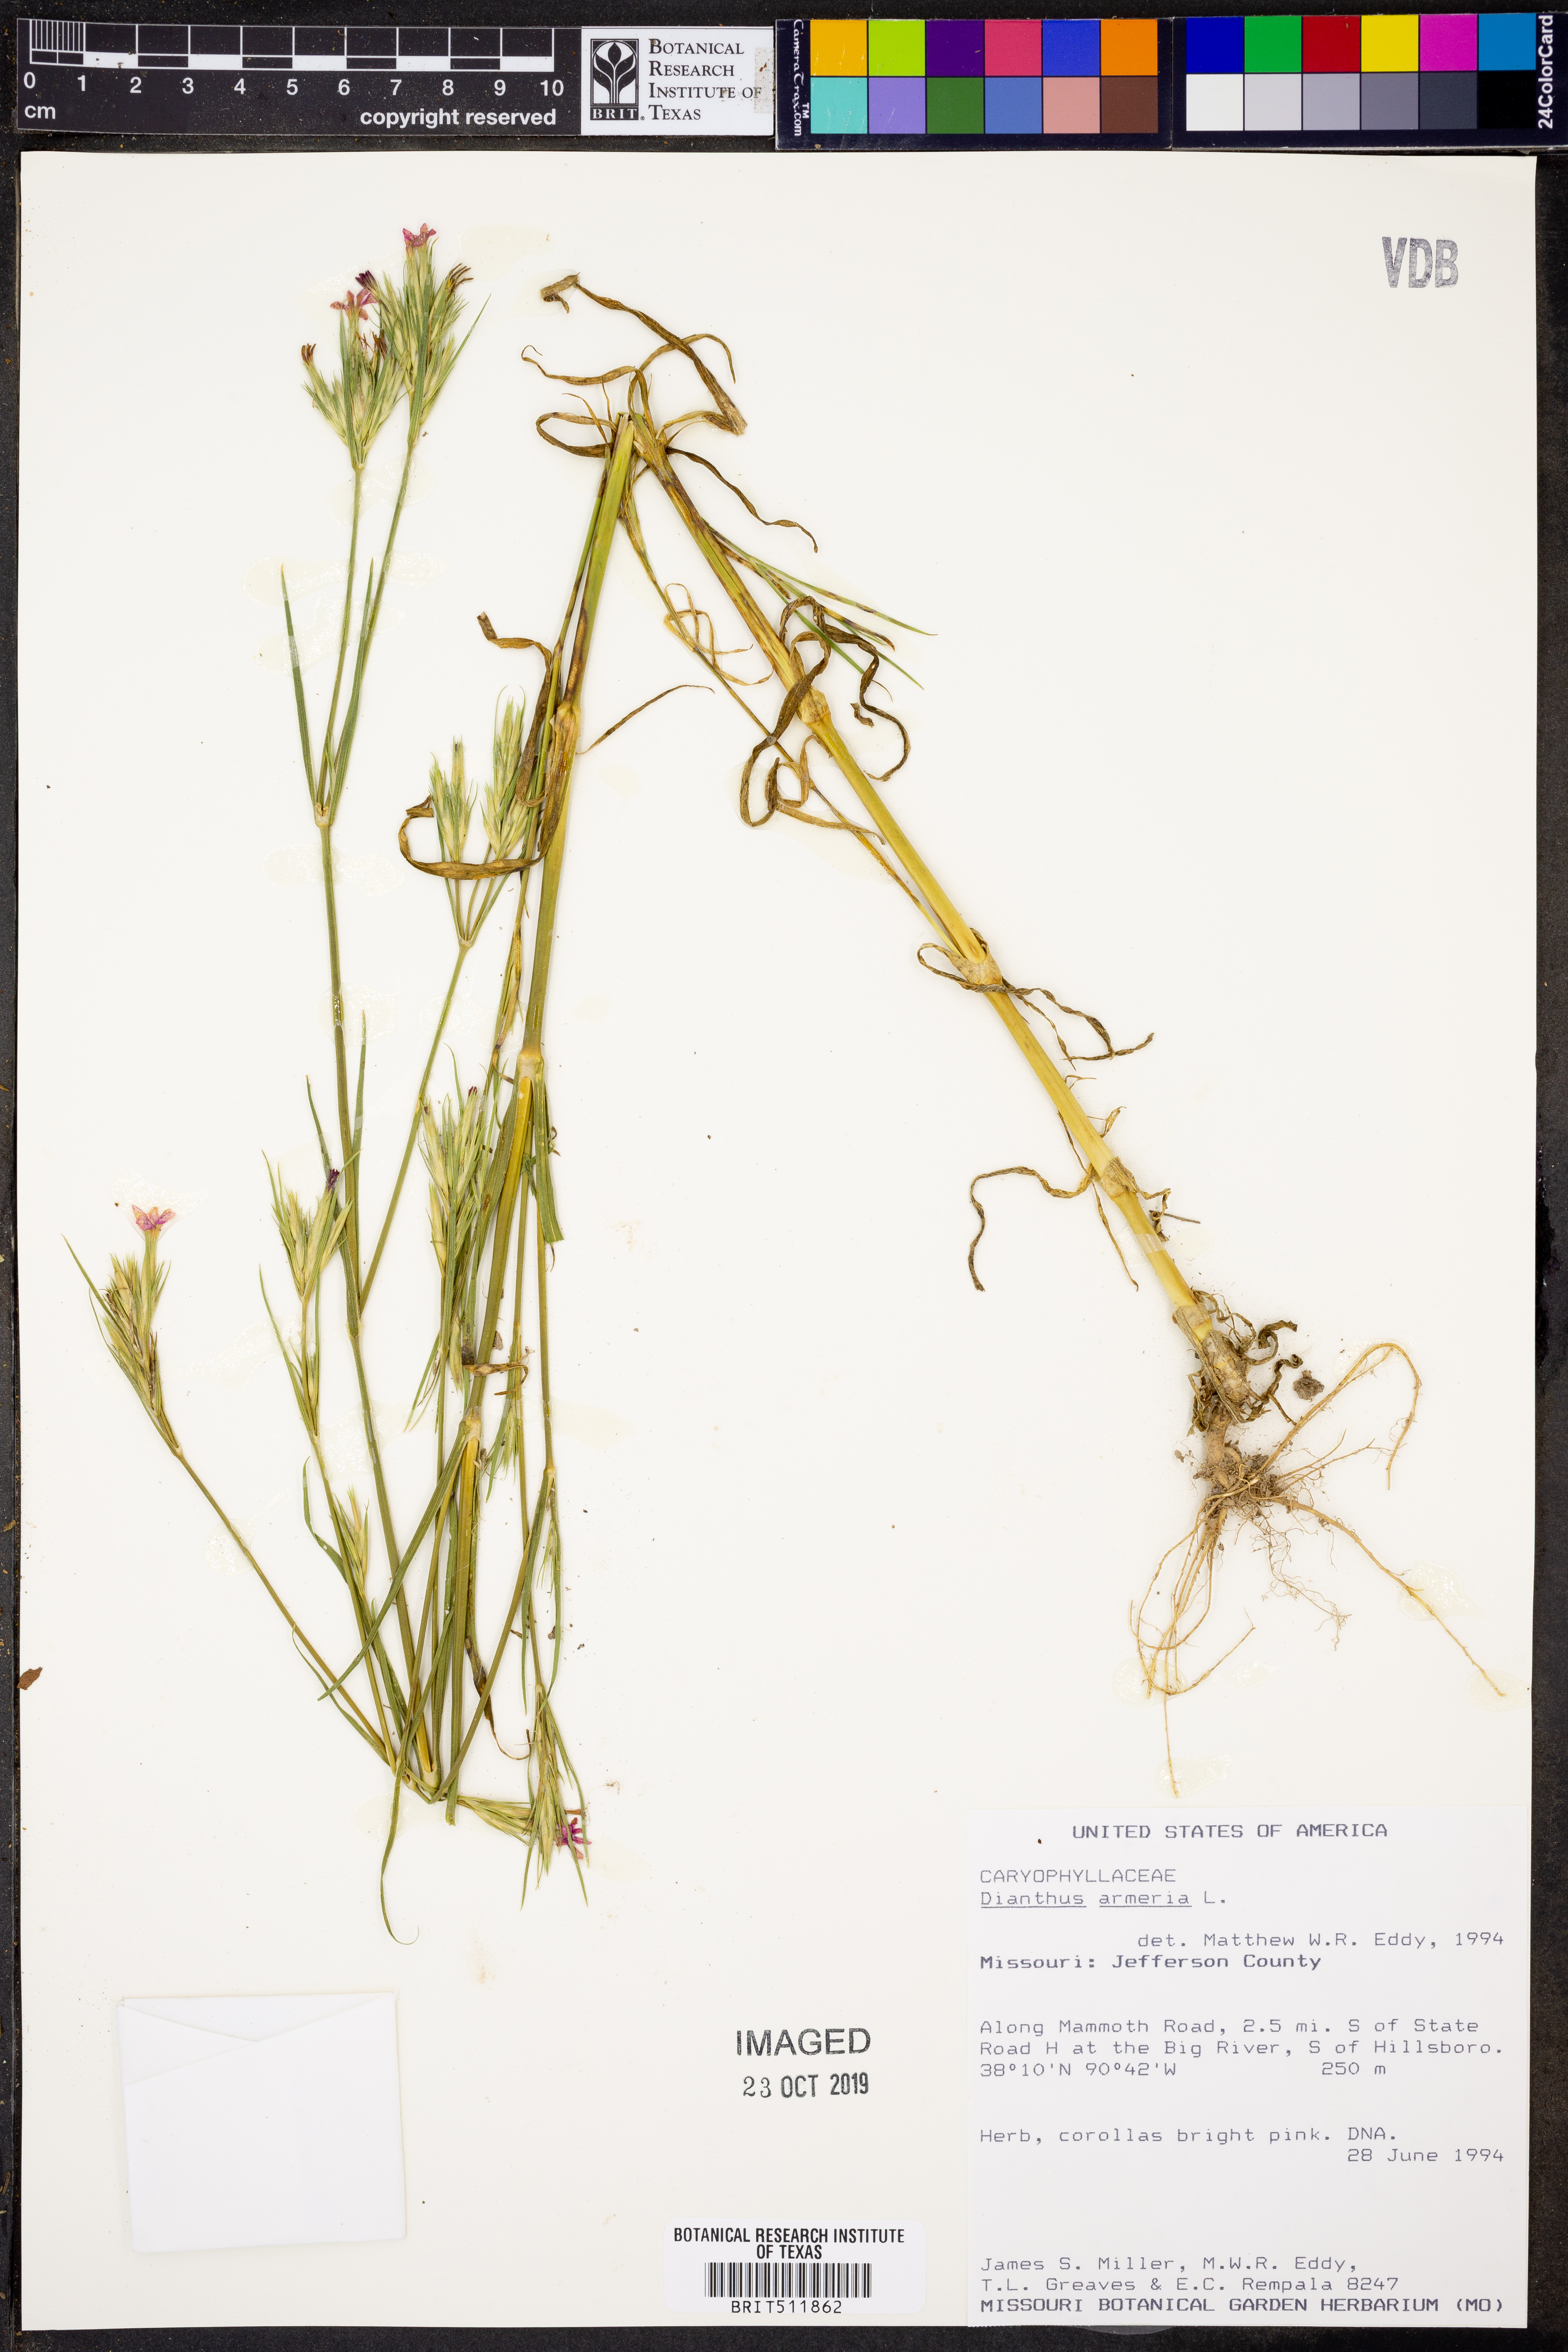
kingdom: Plantae
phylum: Tracheophyta
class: Magnoliopsida
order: Caryophyllales
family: Caryophyllaceae
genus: Dianthus
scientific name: Dianthus armeria
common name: Deptford pink
